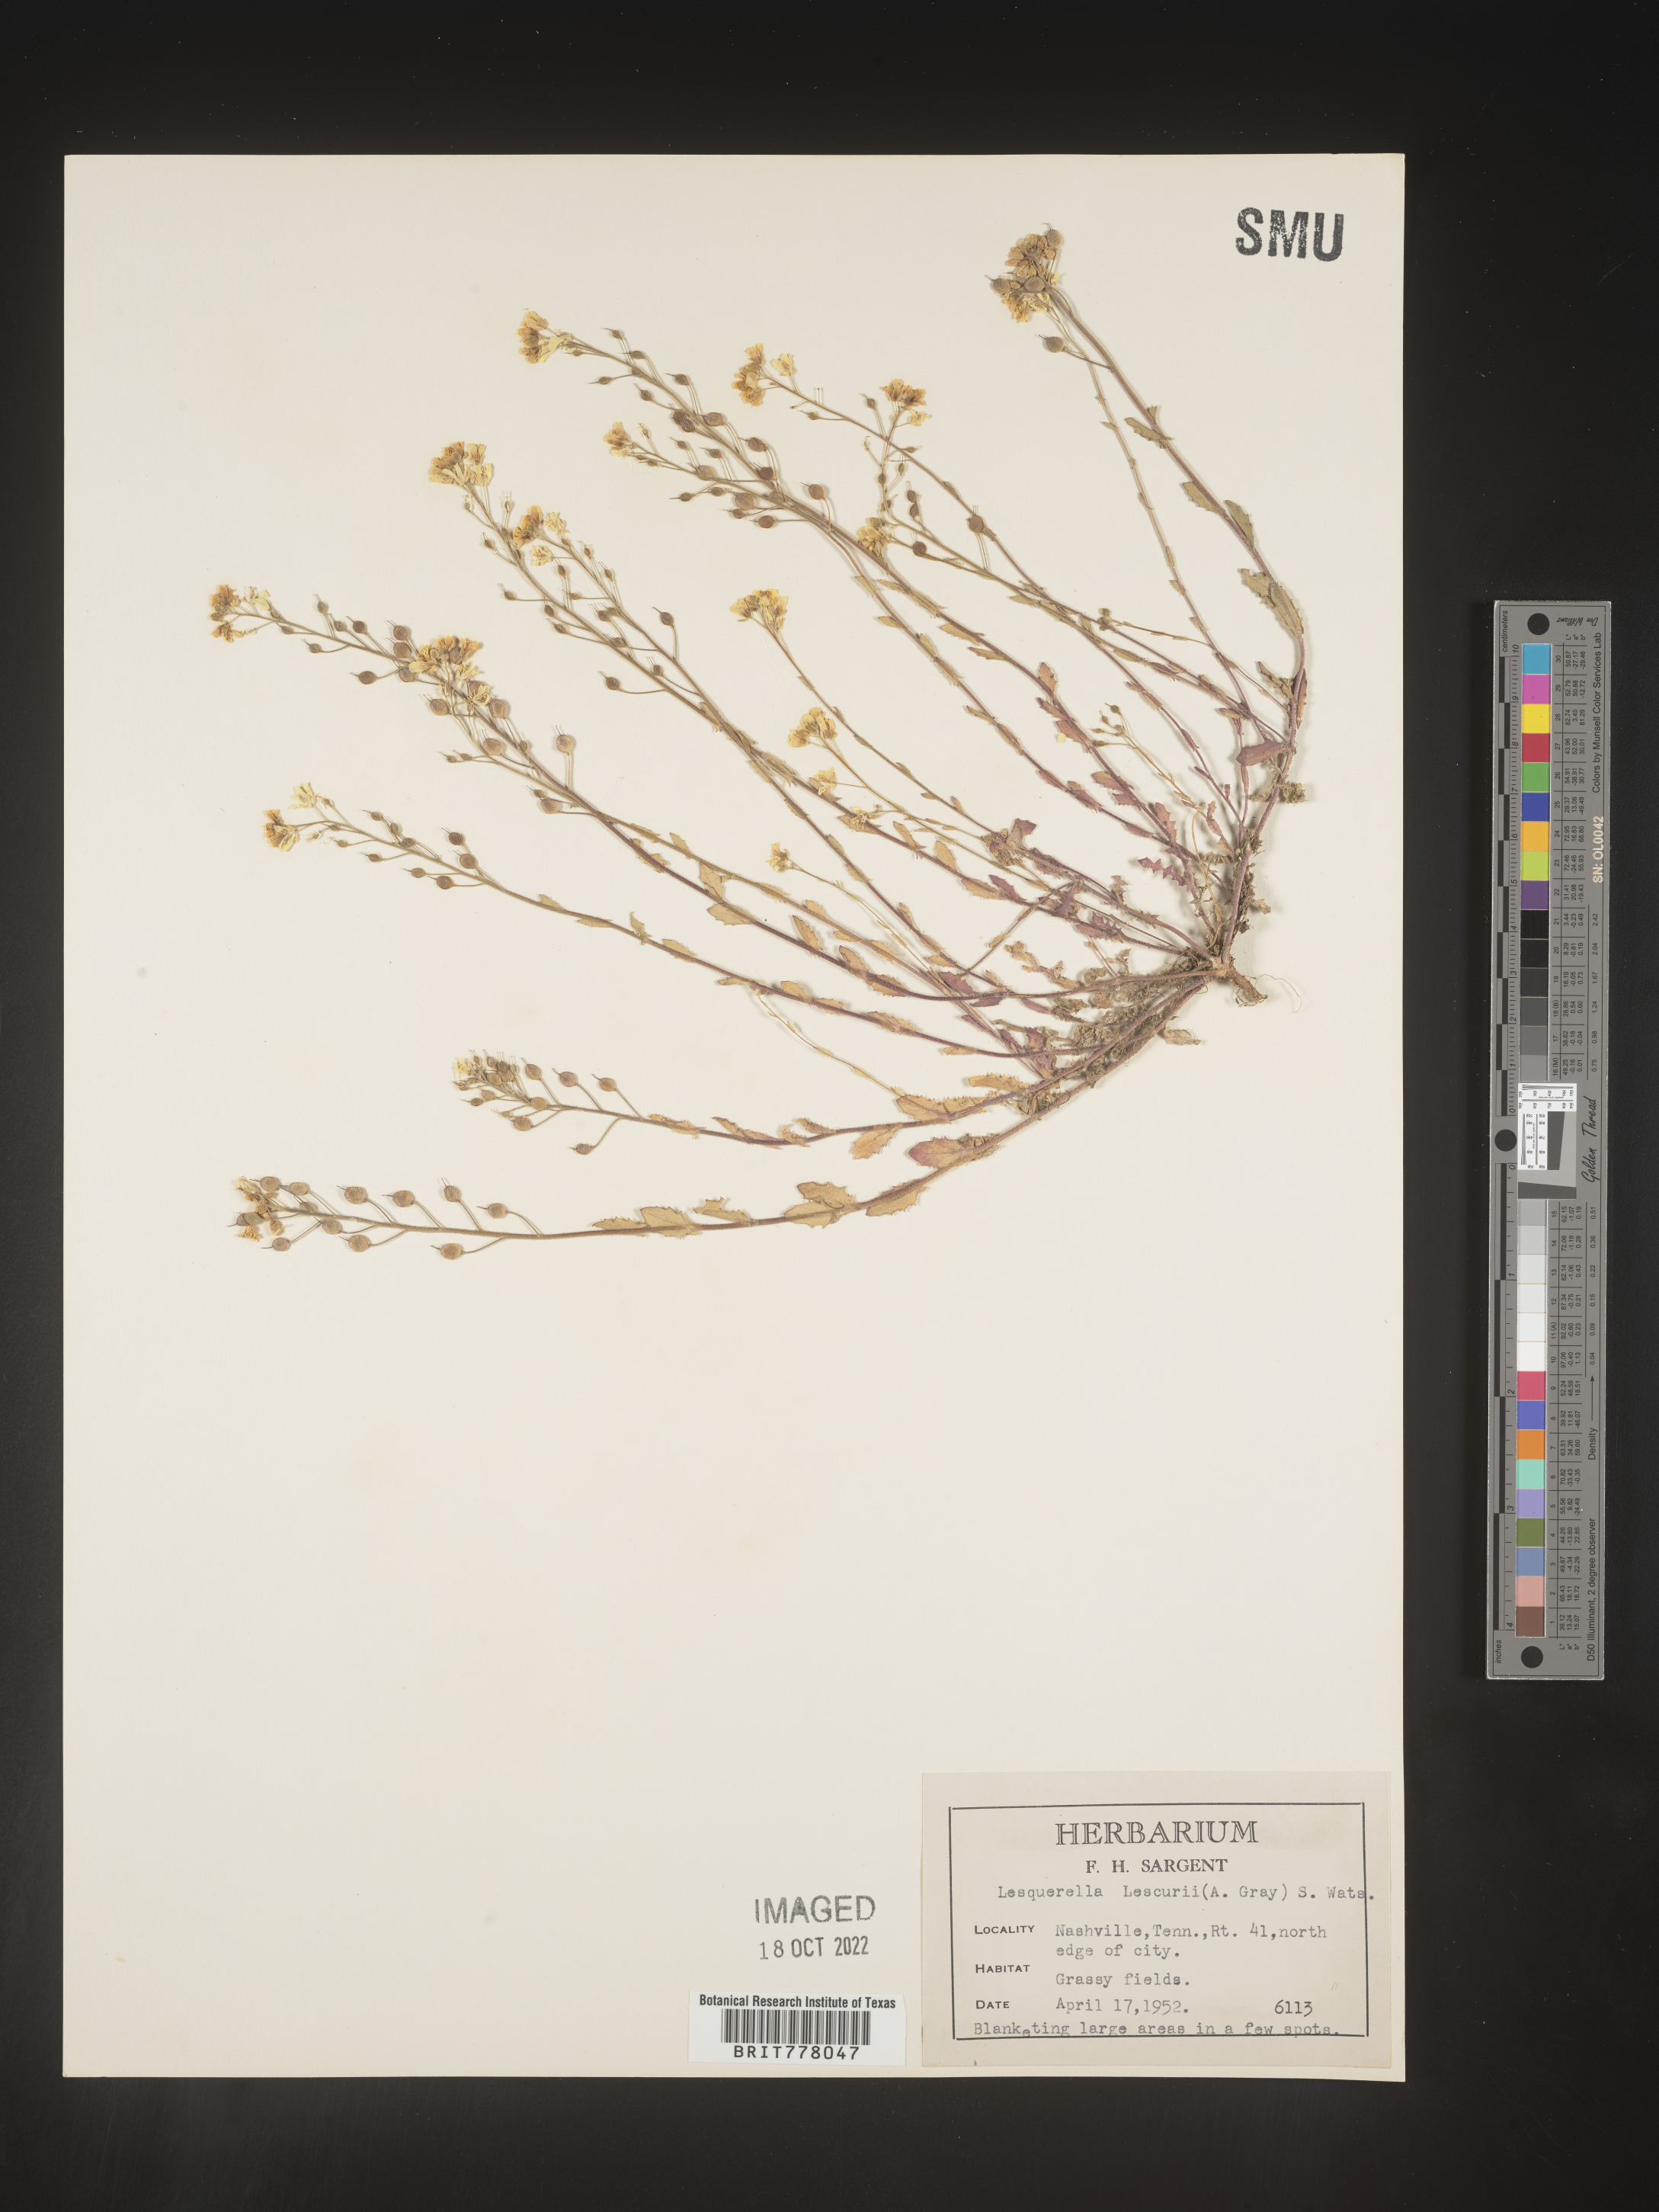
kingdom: Chromista
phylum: Cercozoa
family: Psammonobiotidae
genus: Lesquerella
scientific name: Lesquerella
